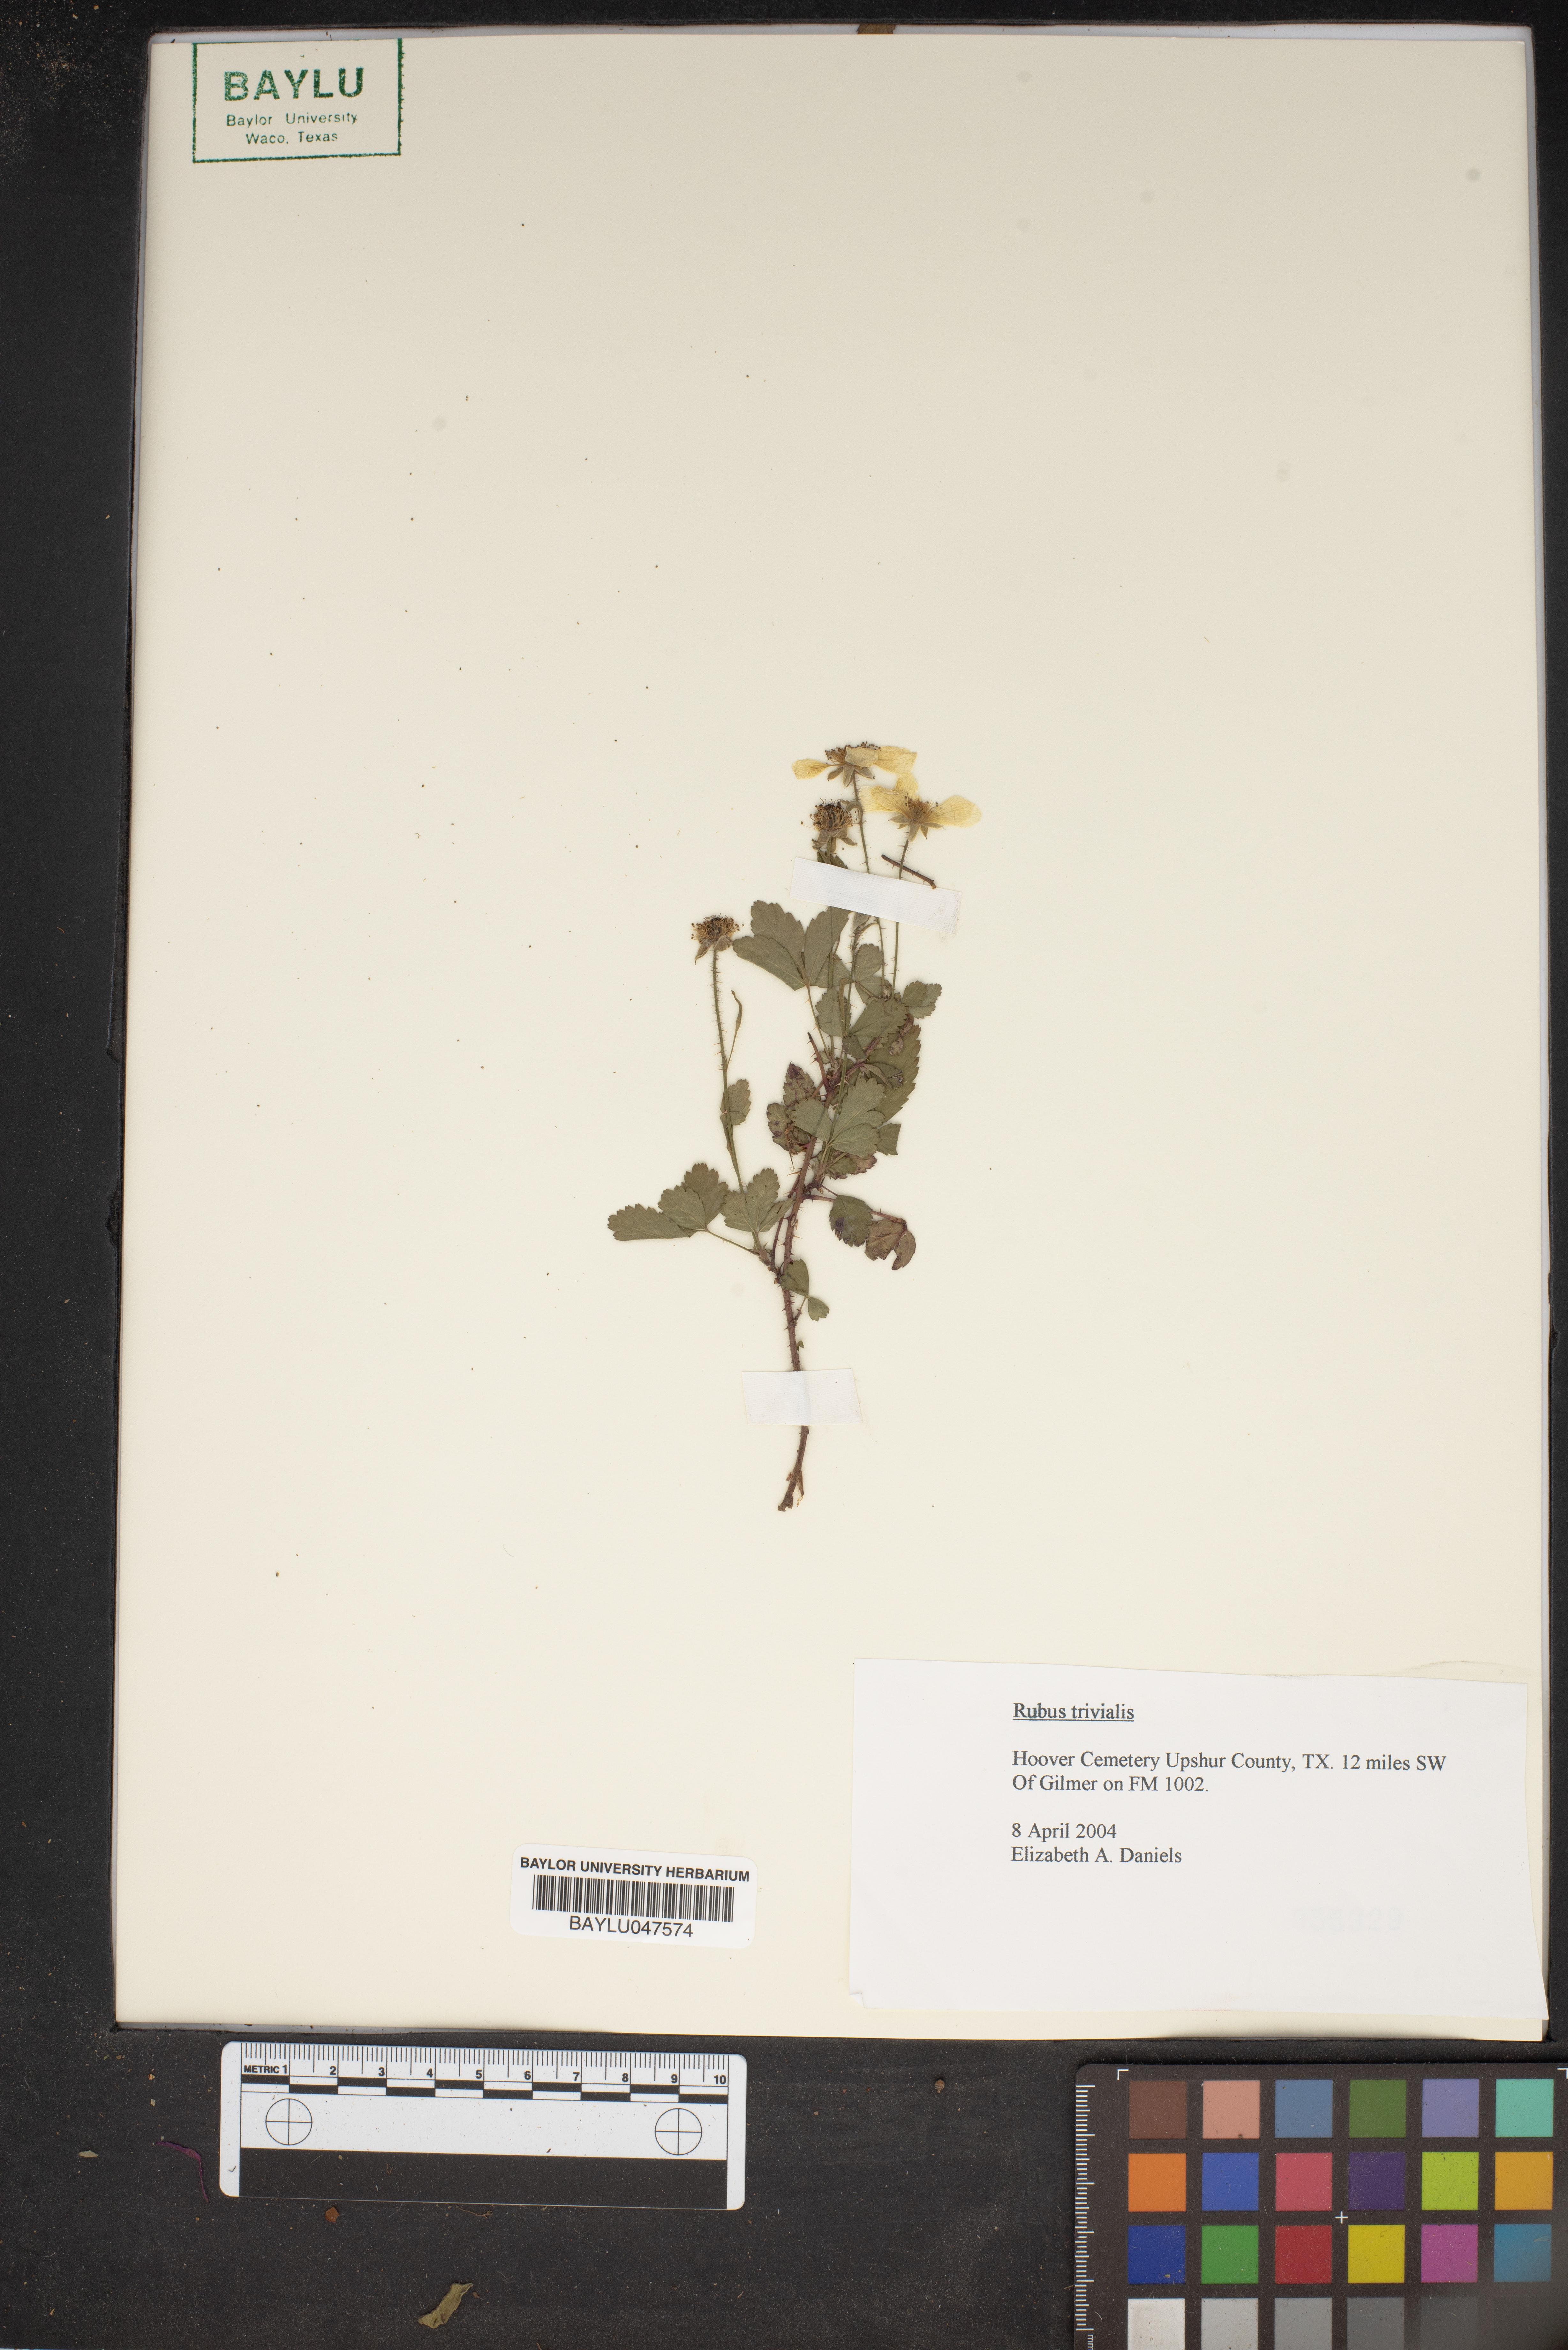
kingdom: Plantae
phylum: Tracheophyta
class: Magnoliopsida
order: Rosales
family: Rosaceae
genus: Rubus
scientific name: Rubus trivialis
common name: Southern dewberry
